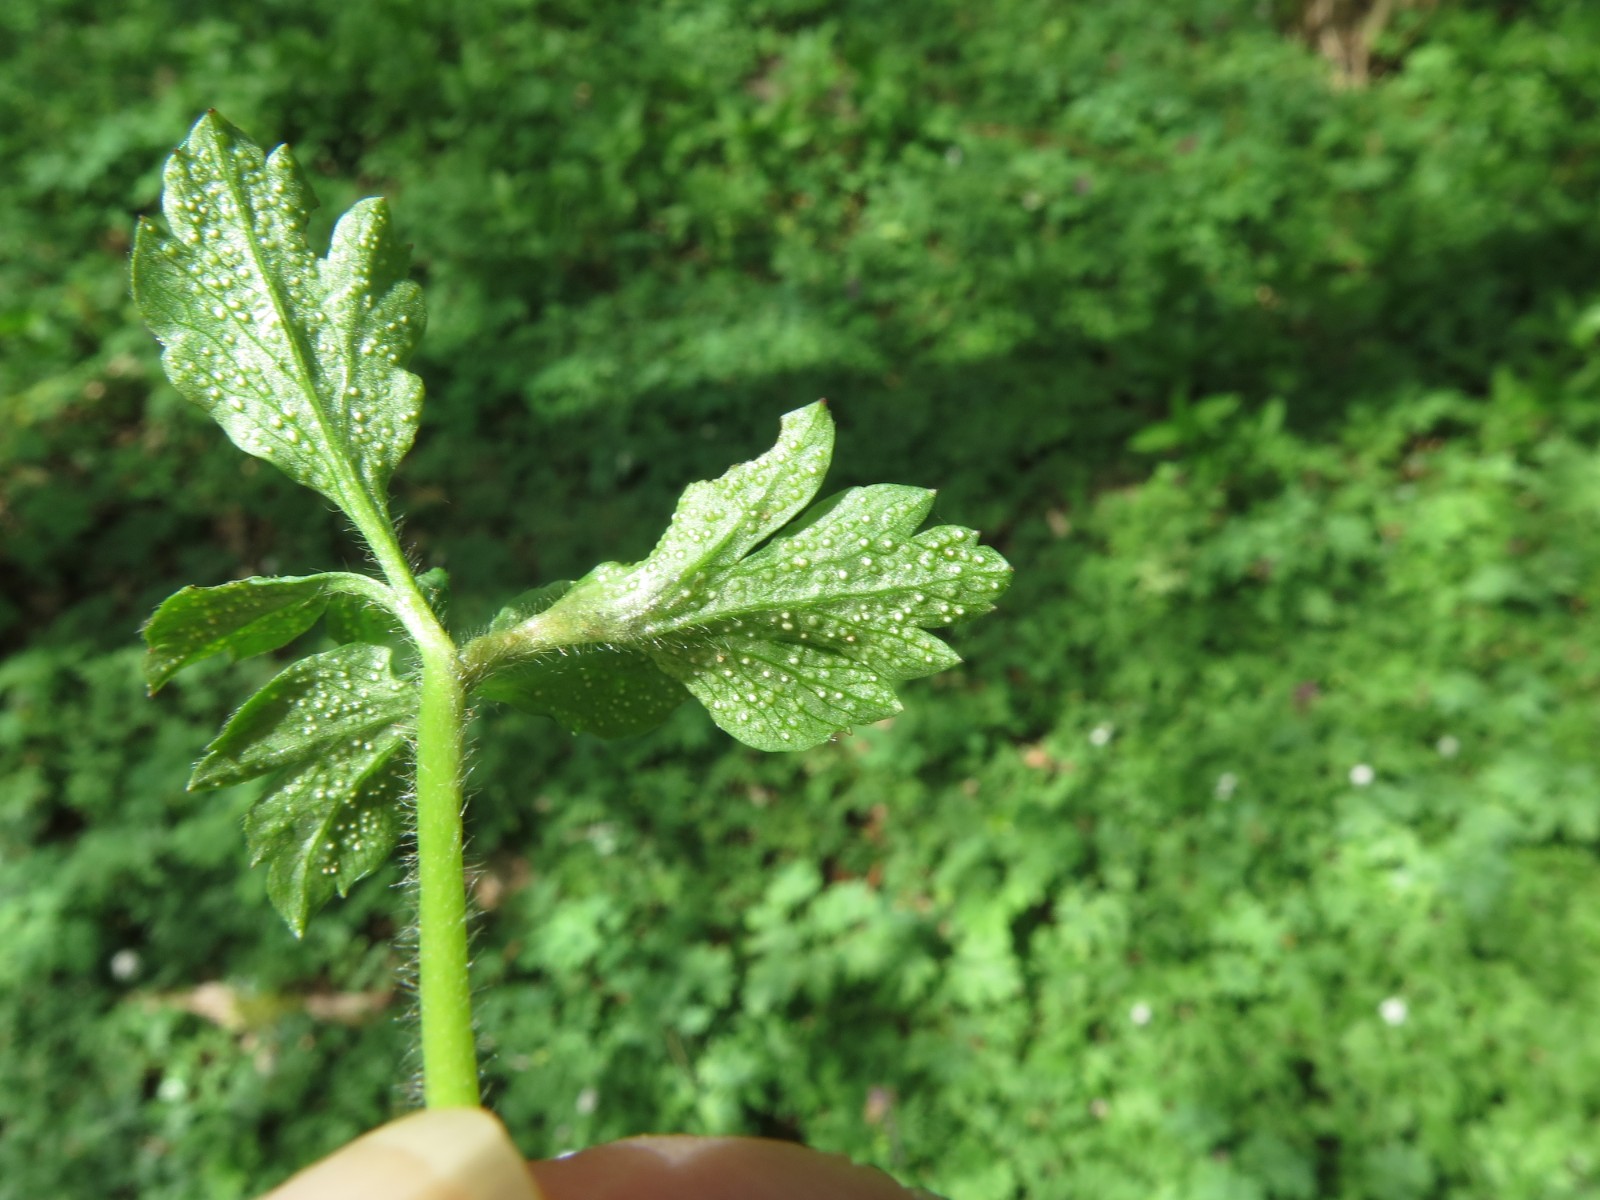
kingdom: Fungi
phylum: Basidiomycota
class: Pucciniomycetes
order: Pucciniales
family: Ochropsoraceae
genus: Ochropsora
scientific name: Ochropsora ariae
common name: anemone-okkerpletrust
